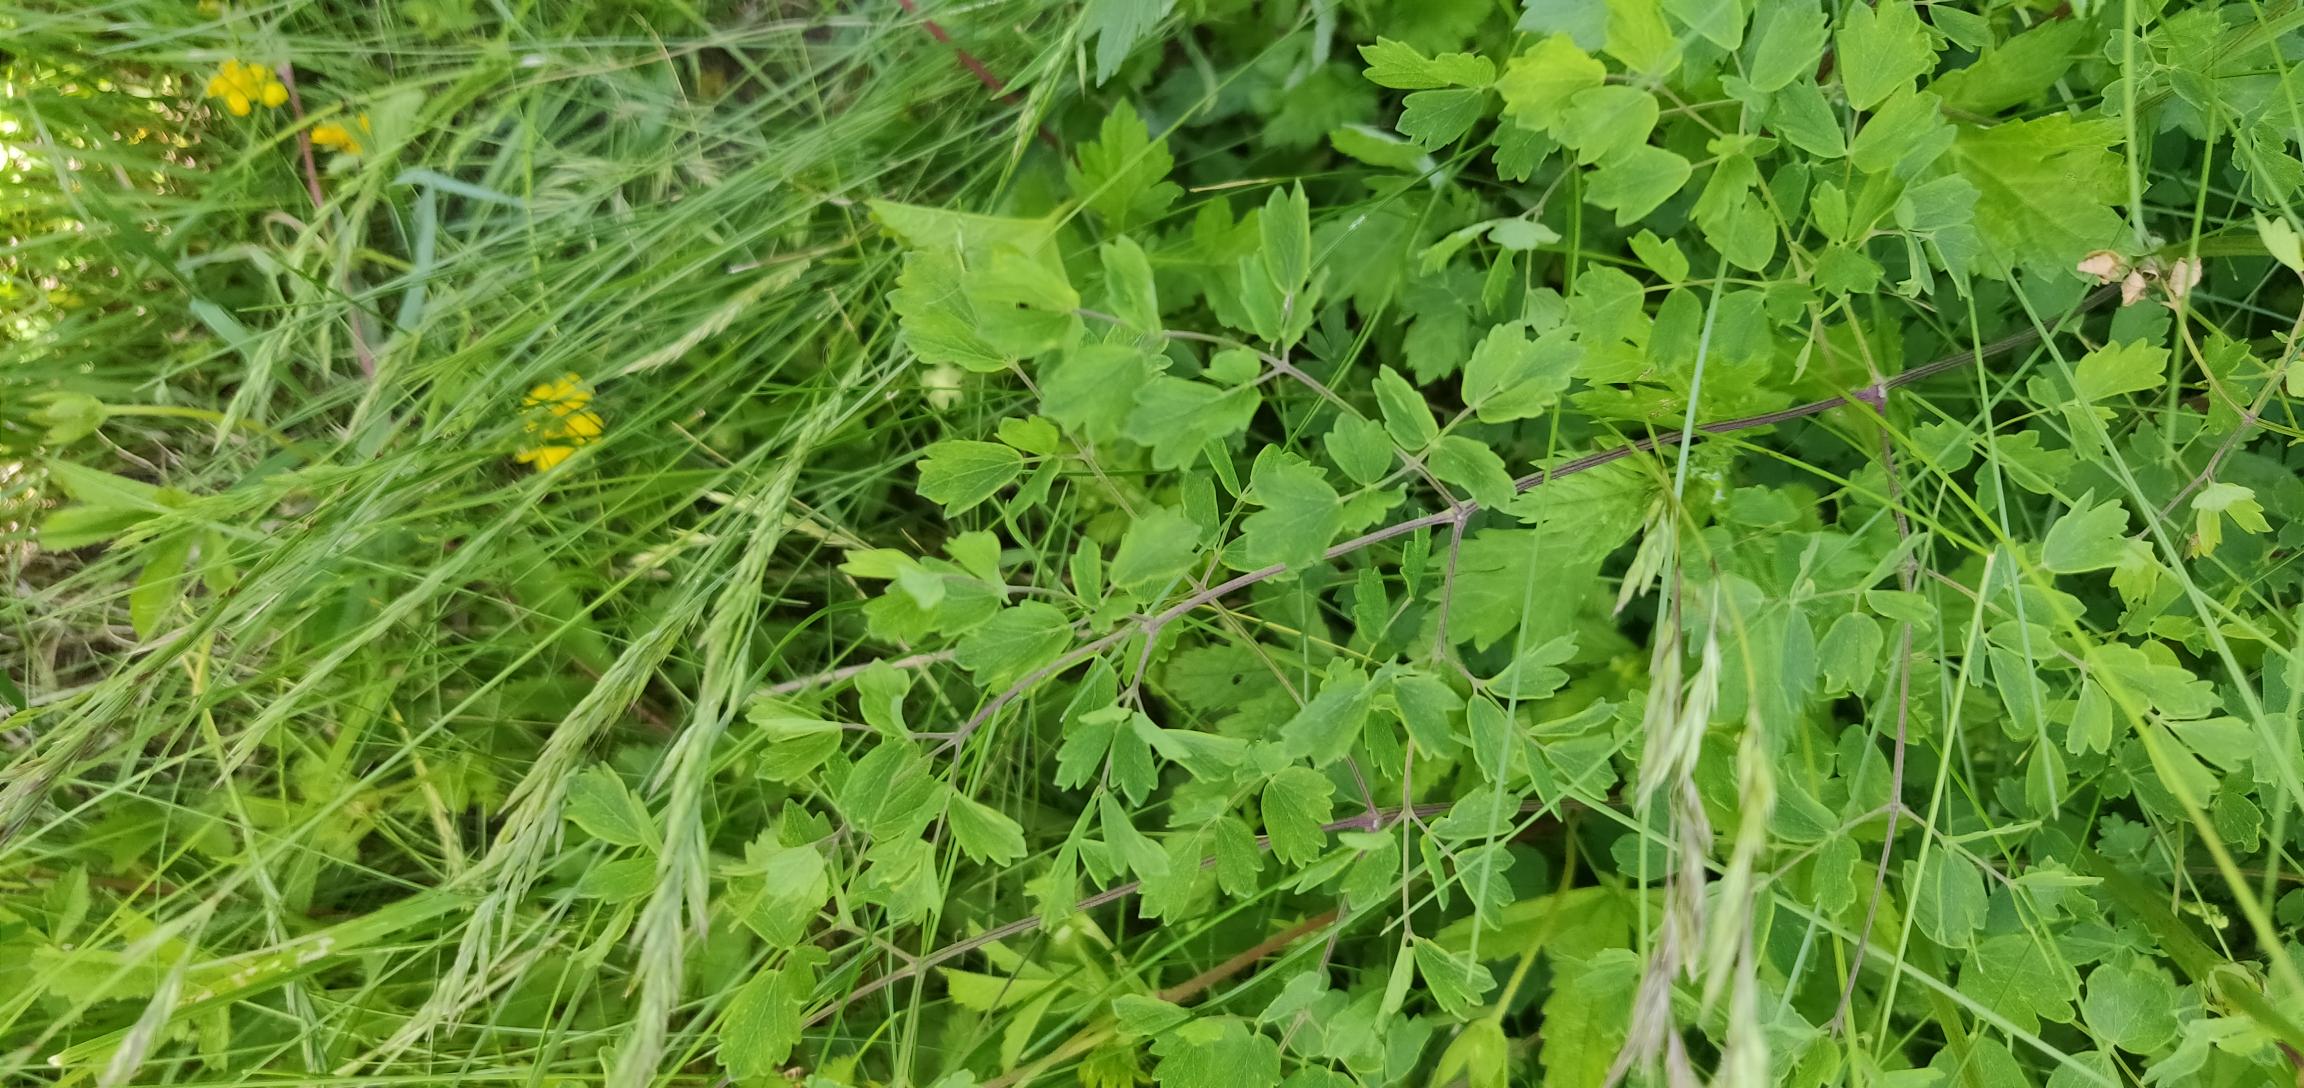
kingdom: Plantae
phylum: Tracheophyta
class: Magnoliopsida
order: Ranunculales
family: Ranunculaceae
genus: Thalictrum
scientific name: Thalictrum minus
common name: Liden frøstjerne
